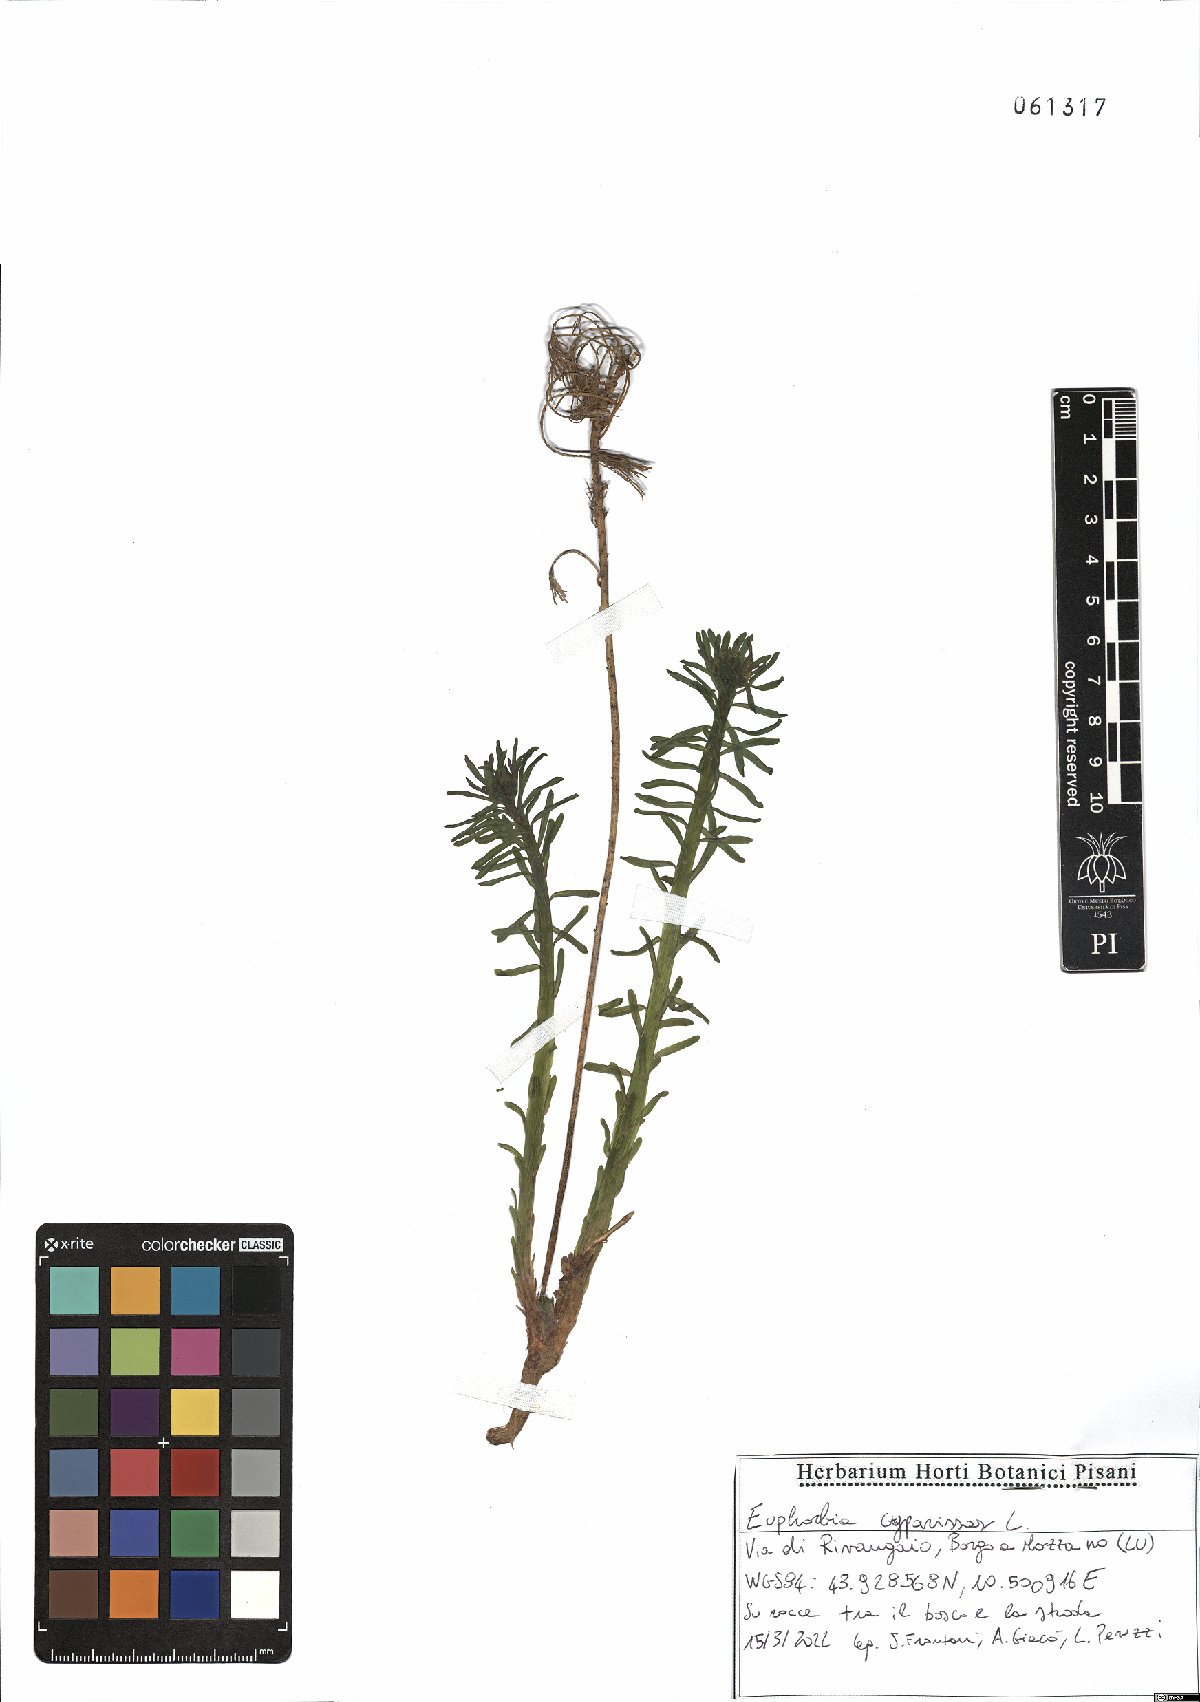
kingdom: Plantae
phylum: Tracheophyta
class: Magnoliopsida
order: Malpighiales
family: Euphorbiaceae
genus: Euphorbia
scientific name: Euphorbia cyparissias
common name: Cypress spurge
